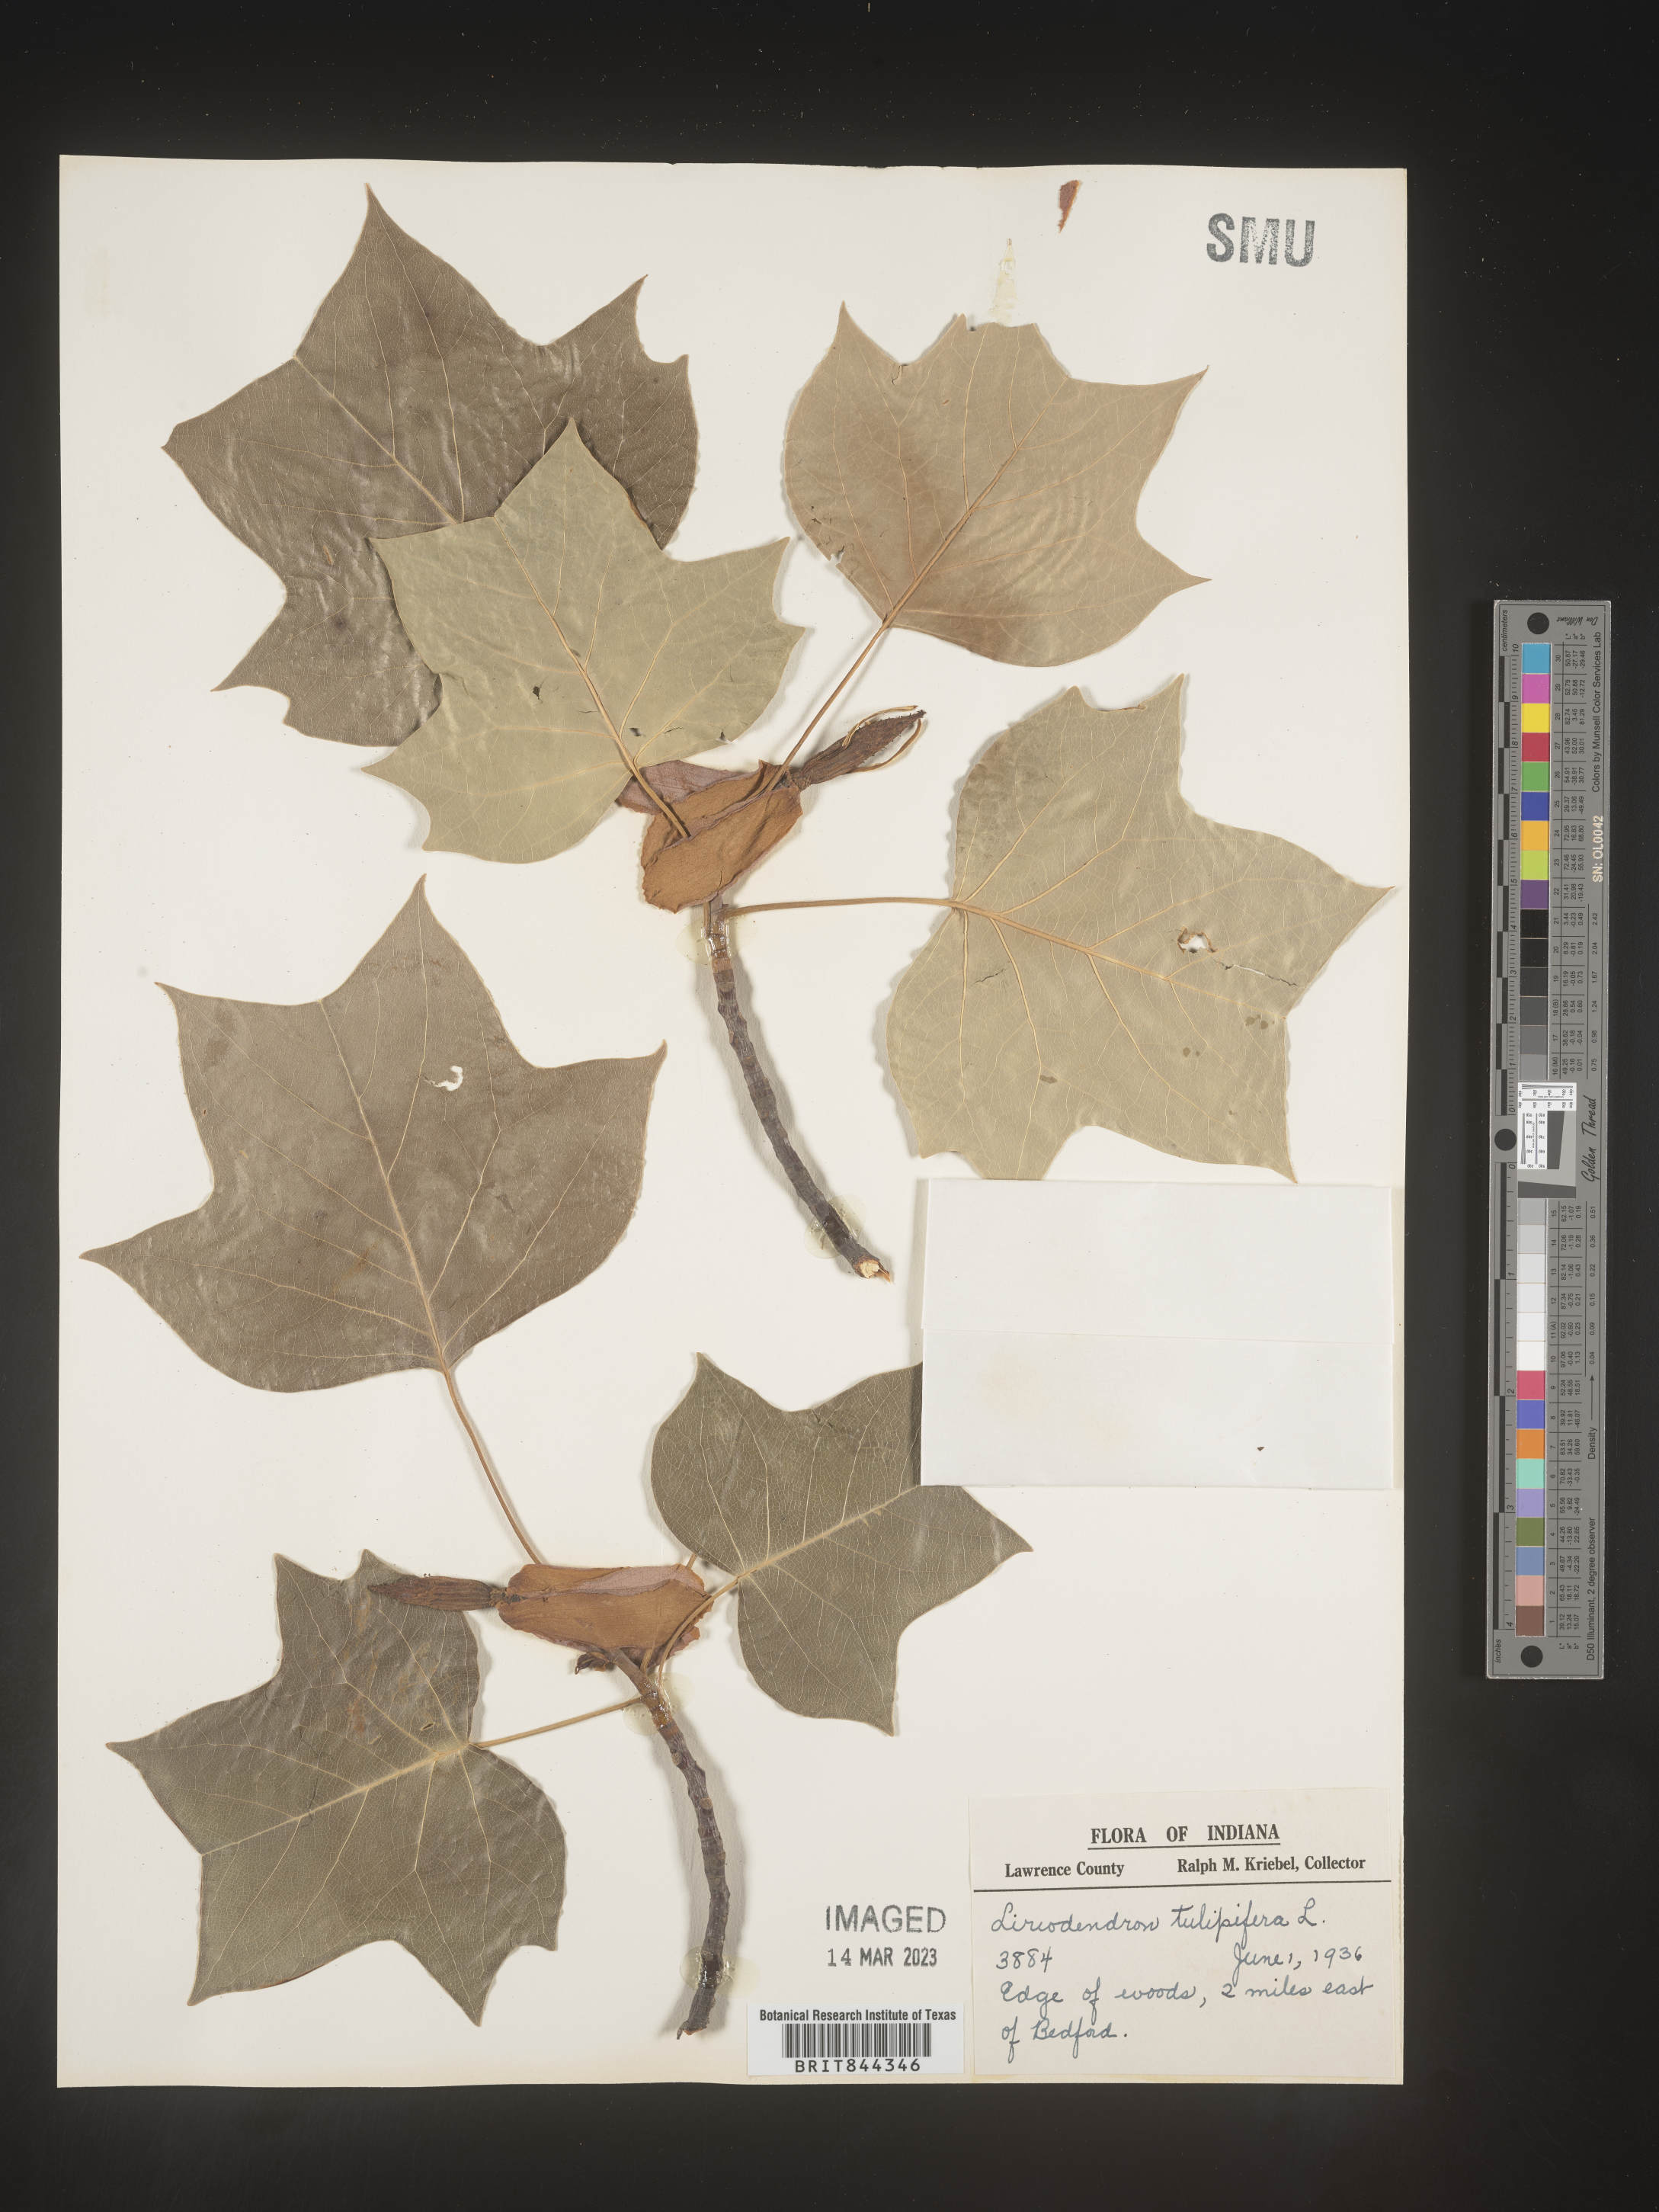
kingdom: Plantae
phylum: Tracheophyta
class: Magnoliopsida
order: Magnoliales
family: Magnoliaceae
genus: Liriodendron
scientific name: Liriodendron tulipifera
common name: Tulip tree
